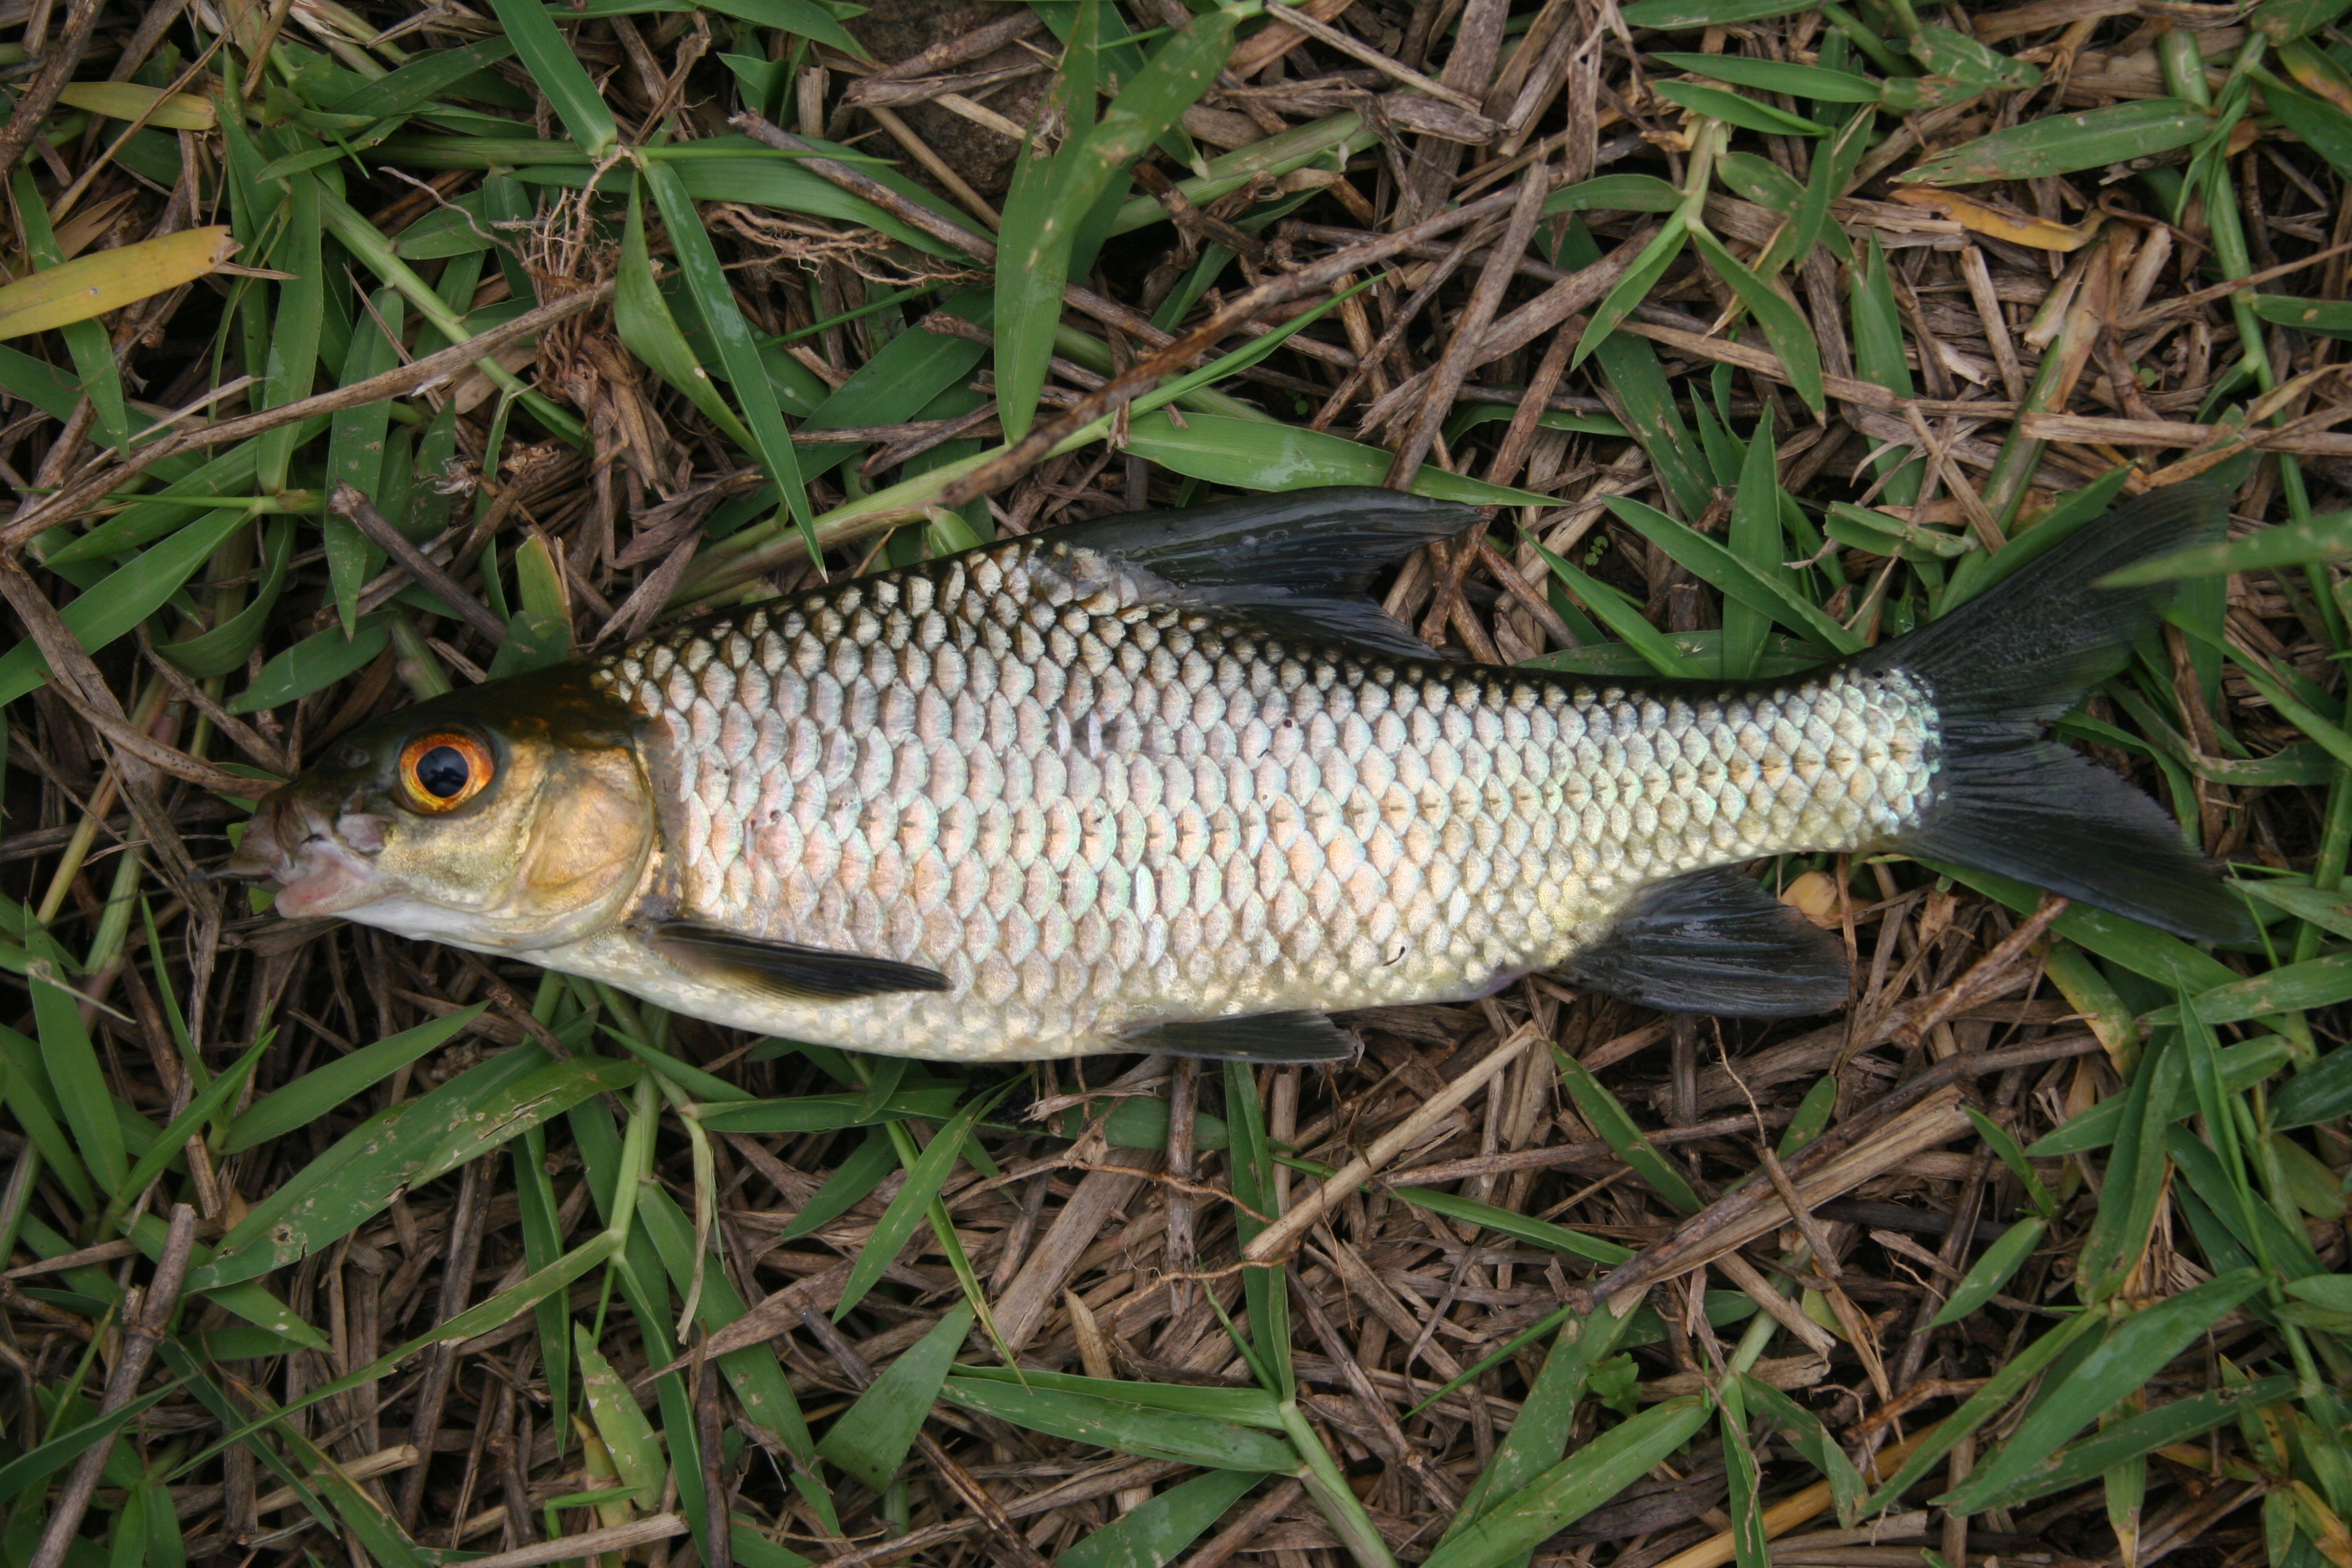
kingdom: Animalia
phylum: Chordata
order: Cypriniformes
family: Cyprinidae
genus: Labeobarbus
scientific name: Labeobarbus rocadasi
